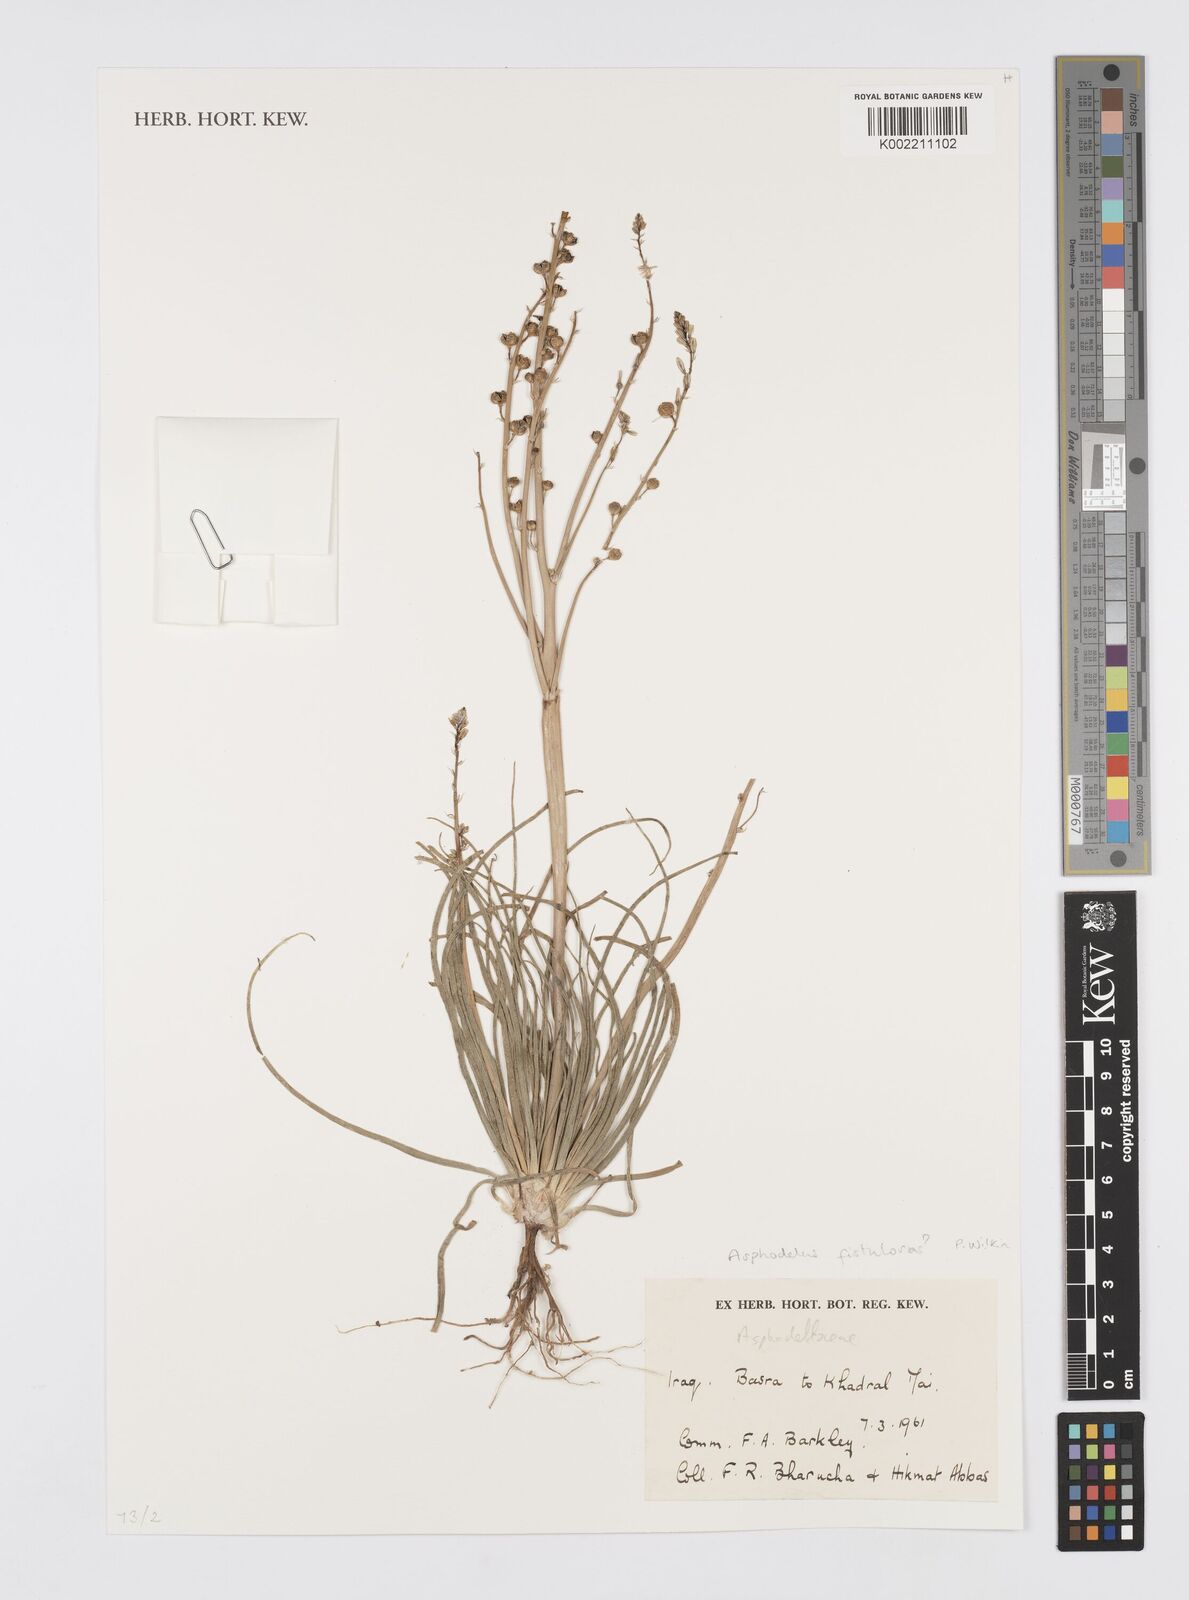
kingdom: Plantae
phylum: Tracheophyta
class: Liliopsida
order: Asparagales
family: Asphodelaceae
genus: Asphodelus
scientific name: Asphodelus fistulosus
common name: Onionweed
